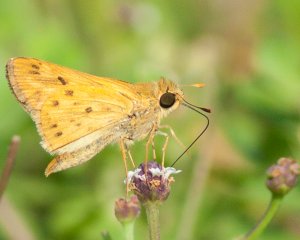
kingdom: Animalia
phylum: Arthropoda
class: Insecta
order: Lepidoptera
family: Hesperiidae
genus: Hylephila
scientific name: Hylephila phyleus
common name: Fiery Skipper
